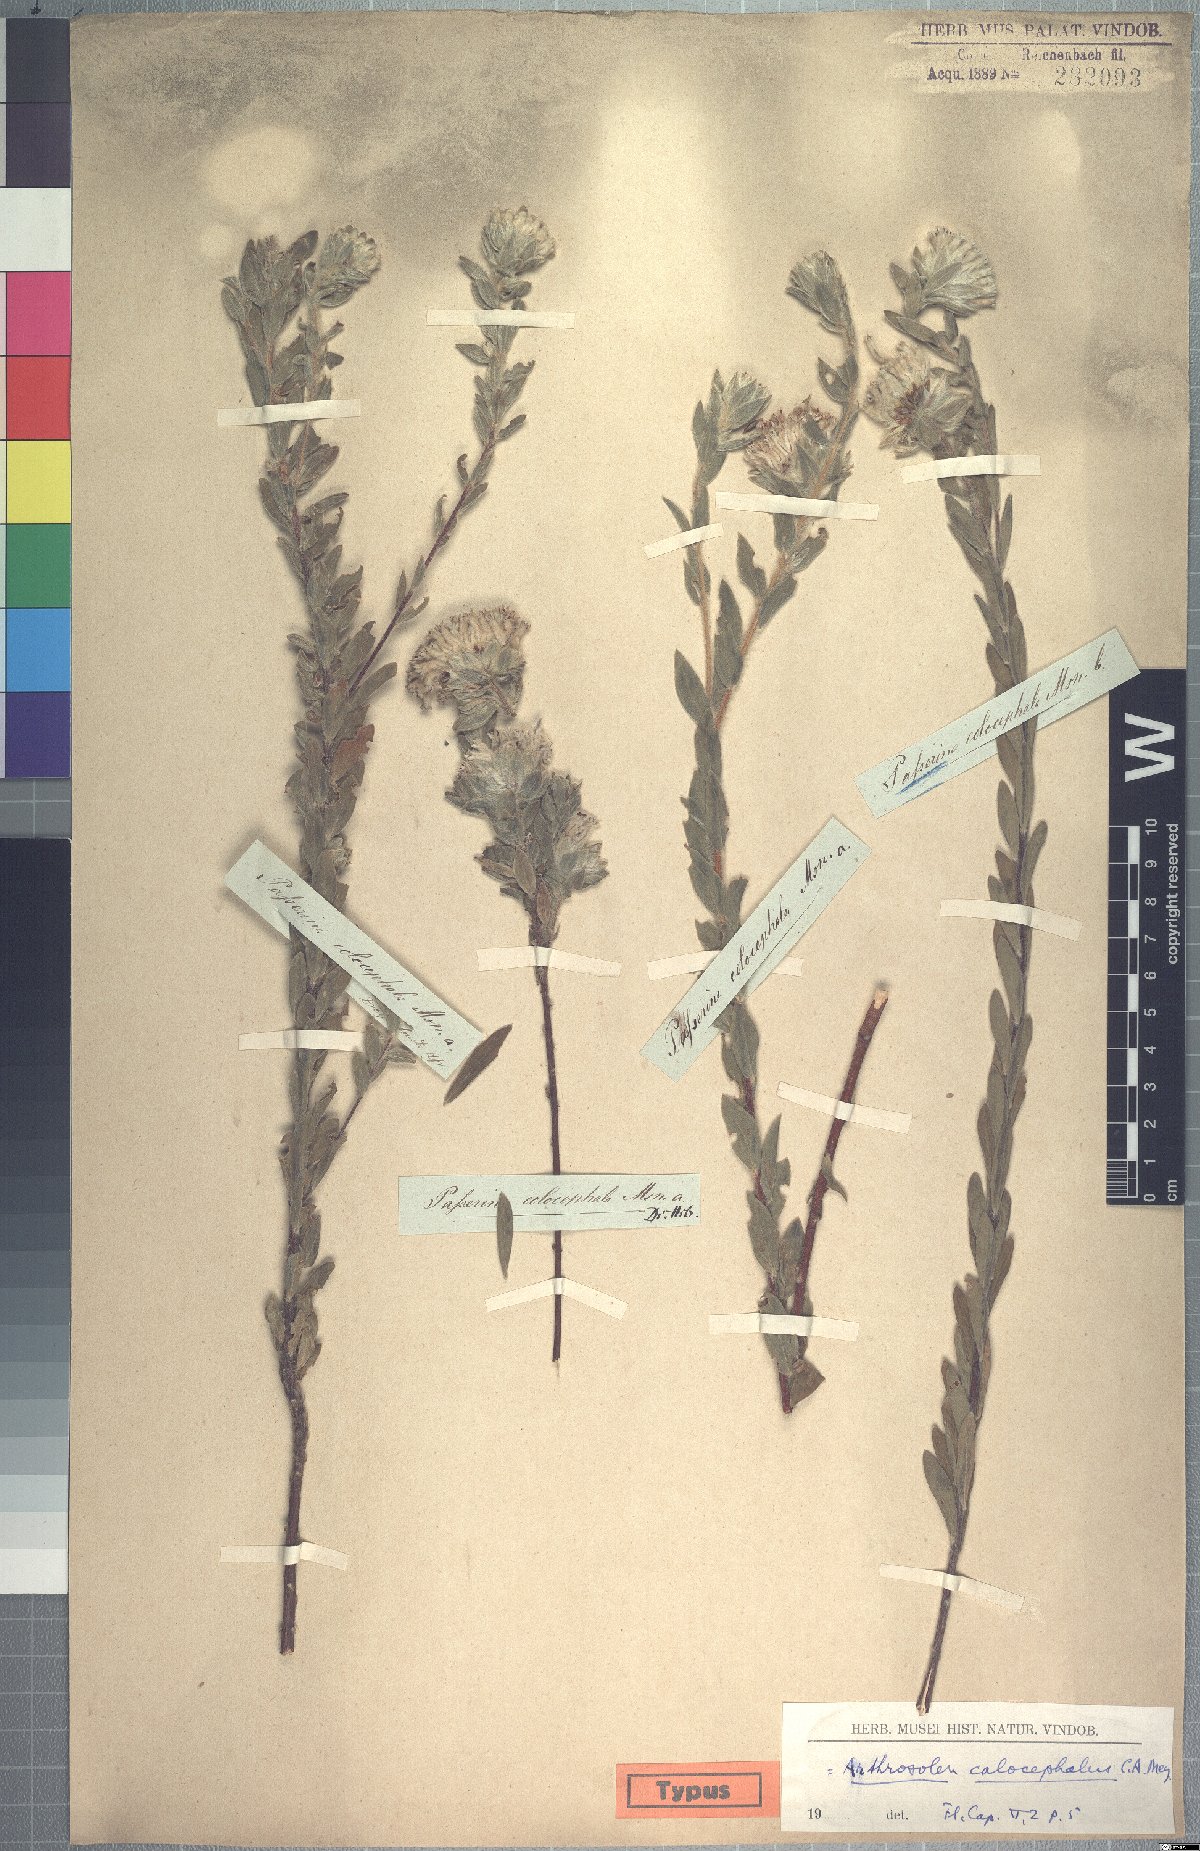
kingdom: Plantae
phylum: Tracheophyta
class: Magnoliopsida
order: Malvales
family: Thymelaeaceae
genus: Gnidia
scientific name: Gnidia calocephala
